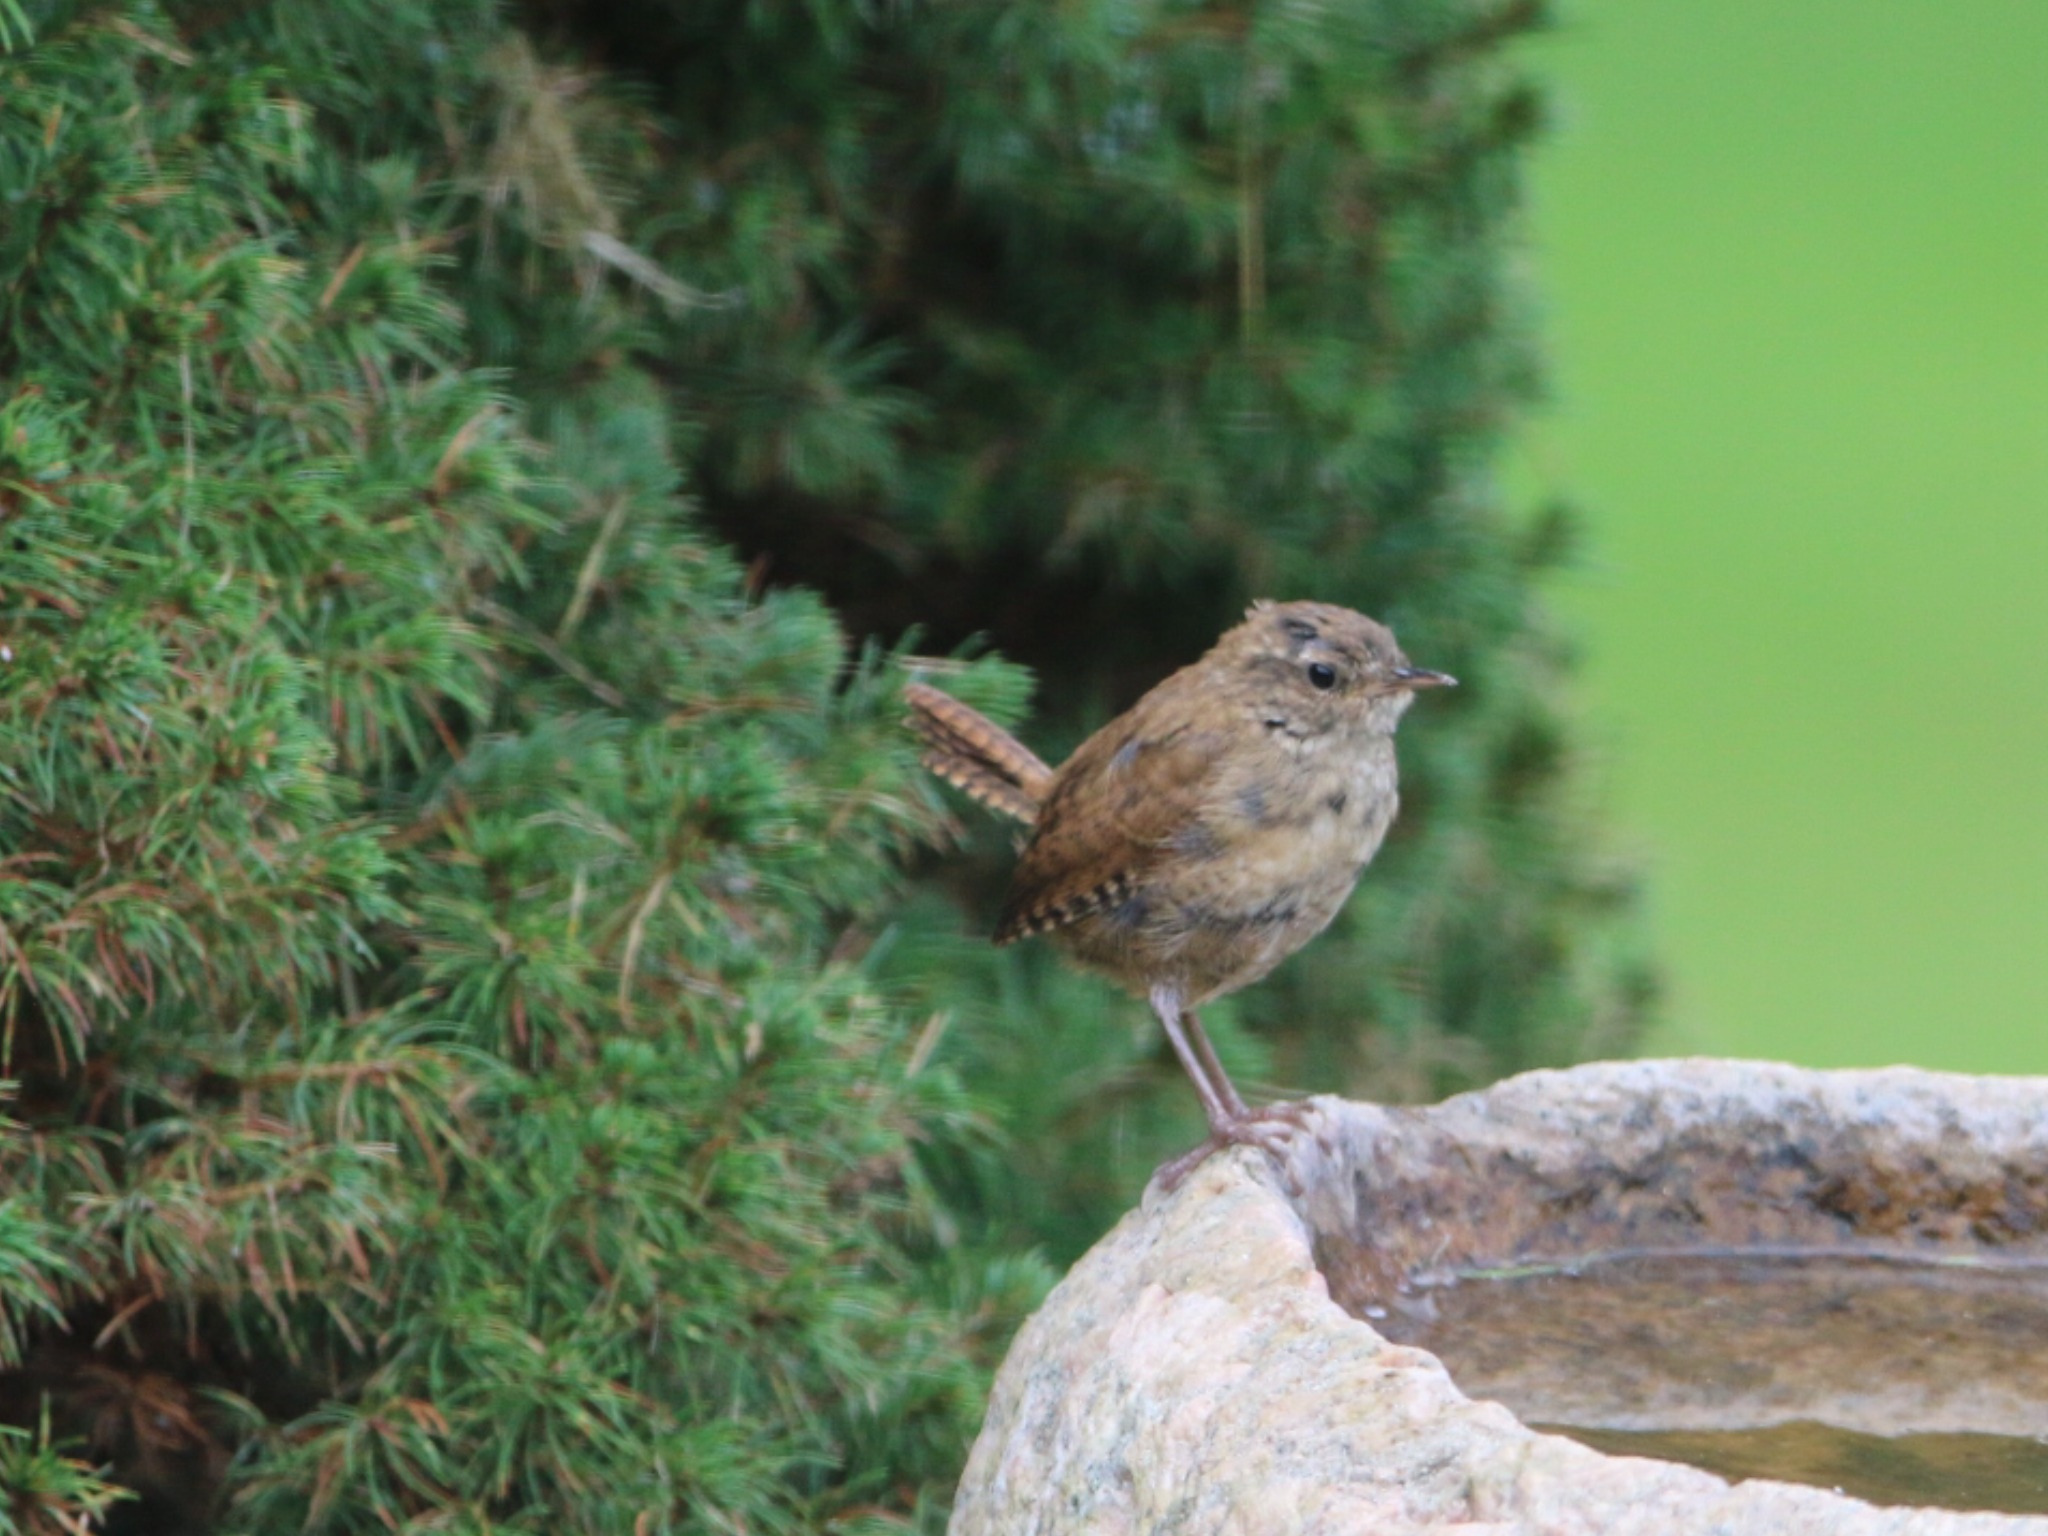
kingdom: Animalia
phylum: Chordata
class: Aves
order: Passeriformes
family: Troglodytidae
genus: Troglodytes
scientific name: Troglodytes troglodytes
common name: Gærdesmutte
